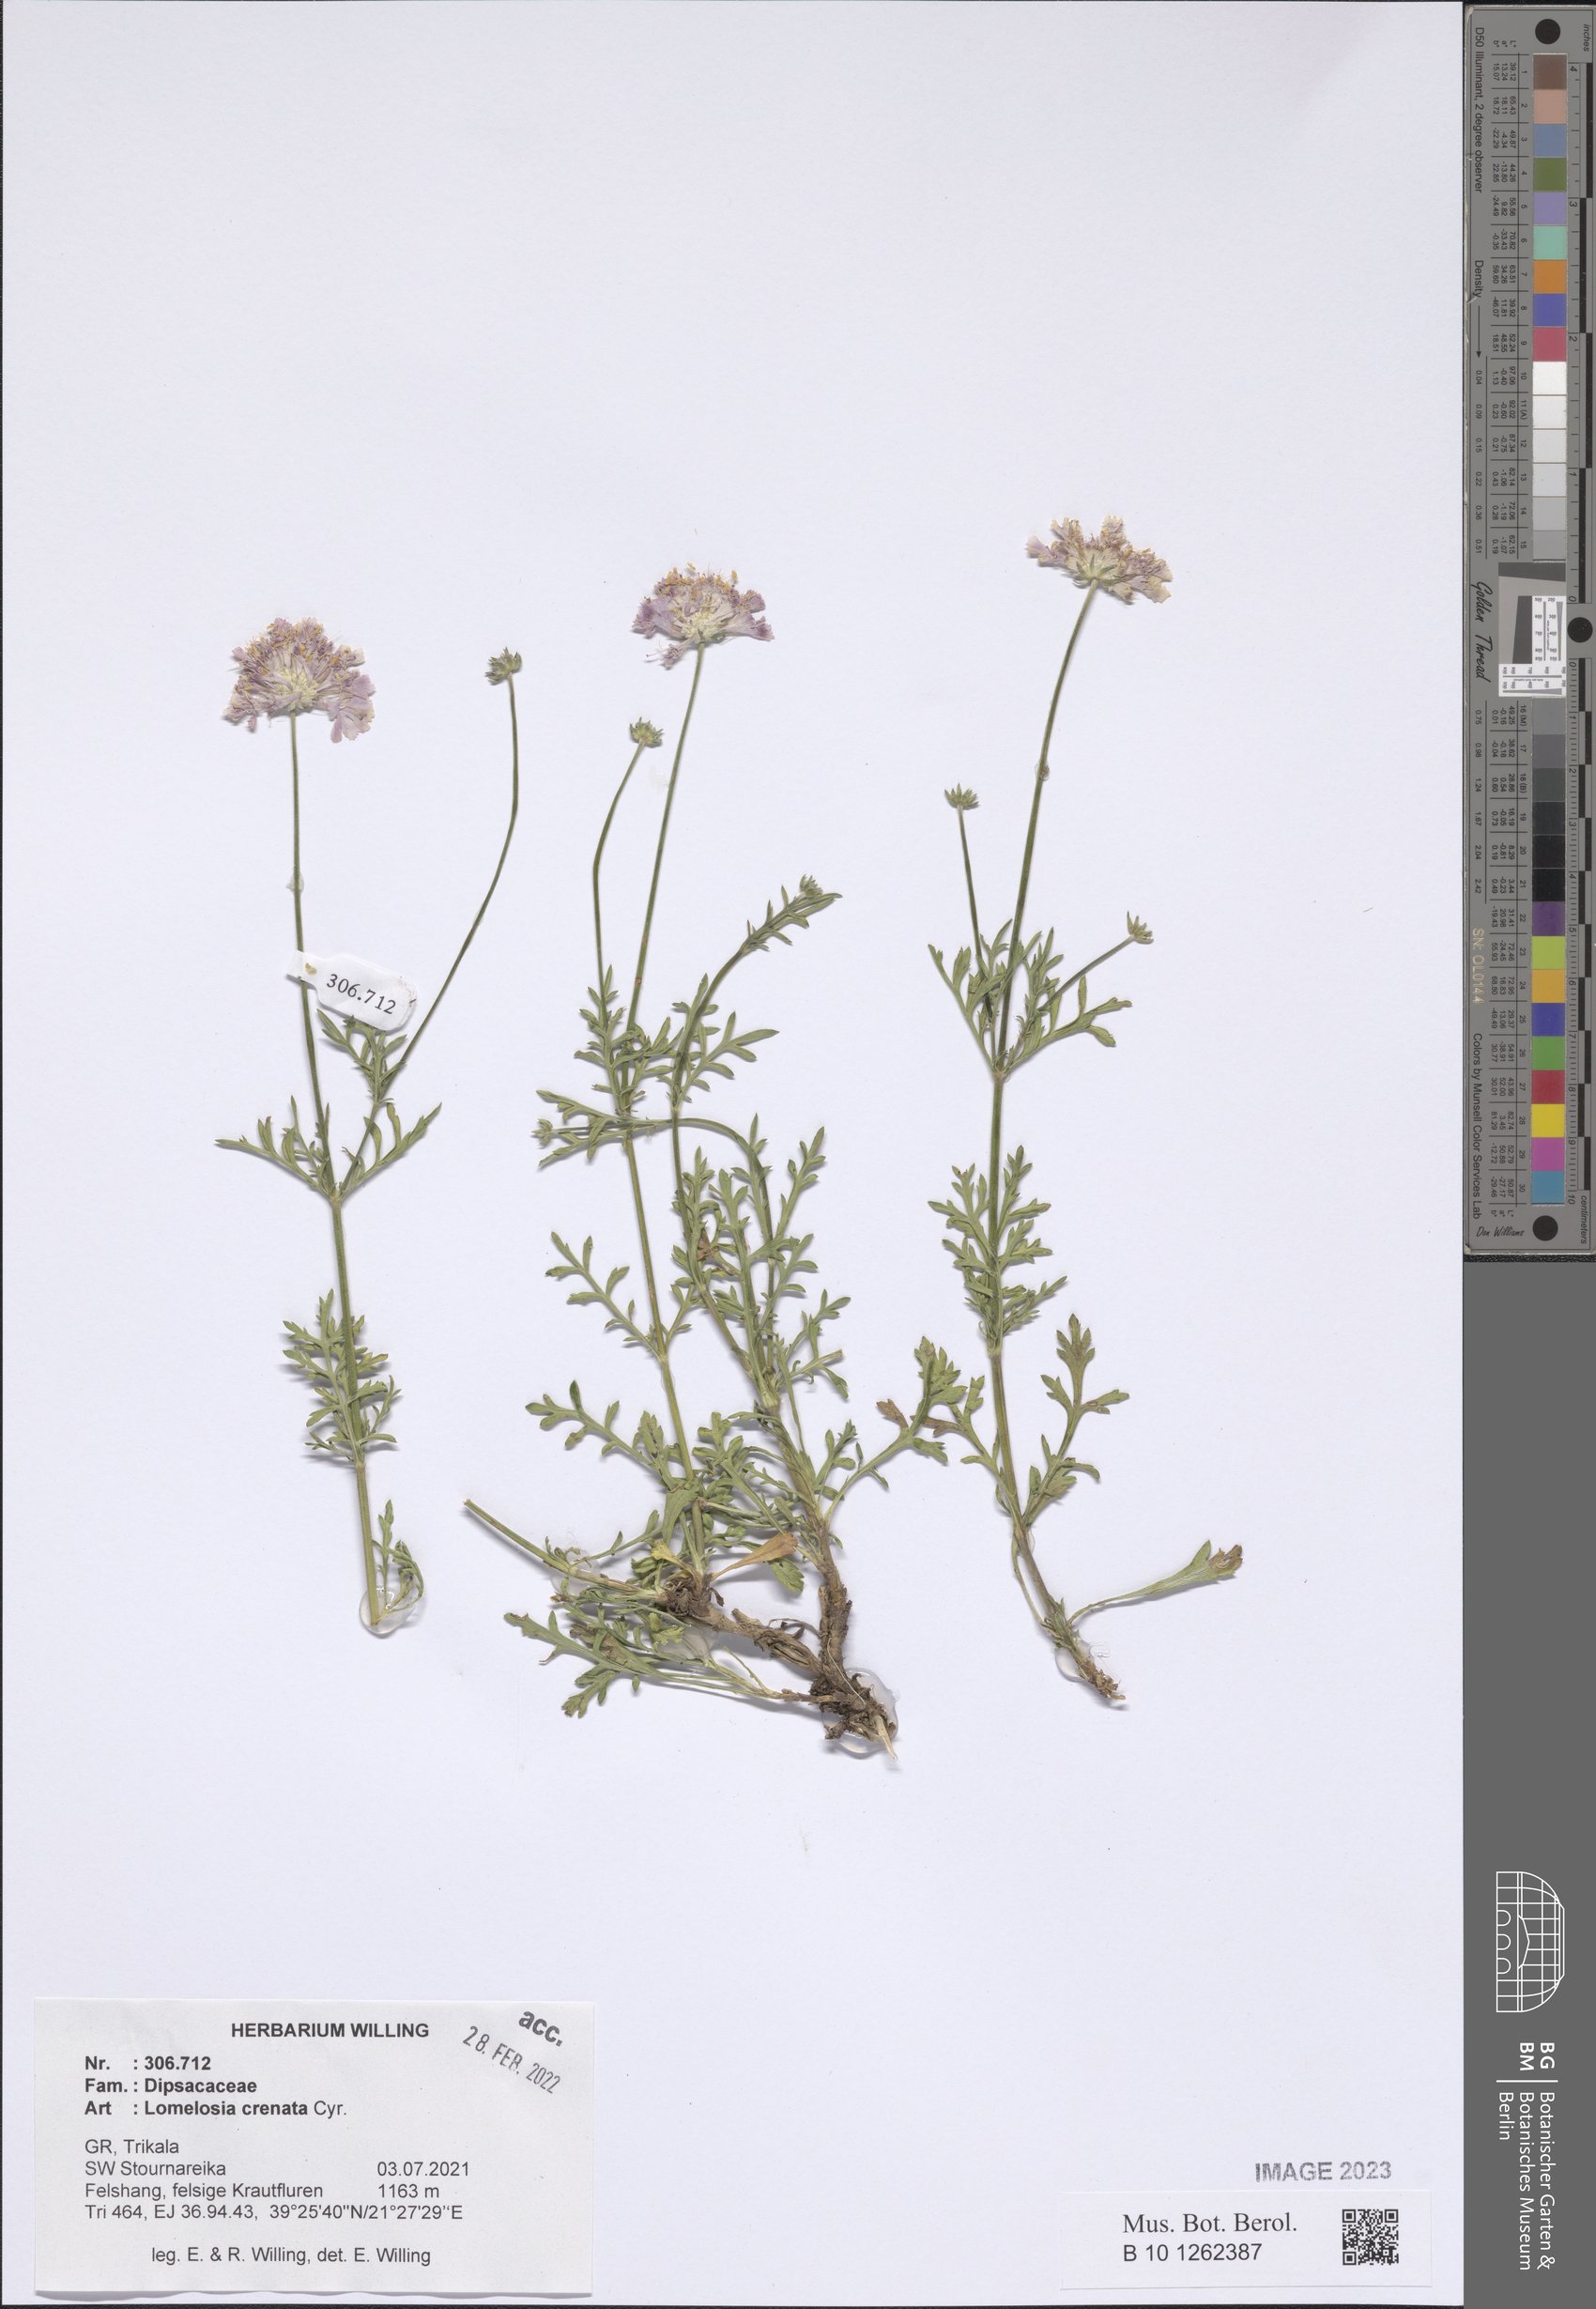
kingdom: Plantae
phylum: Tracheophyta
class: Magnoliopsida
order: Dipsacales
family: Caprifoliaceae
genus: Lomelosia
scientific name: Lomelosia crenata
